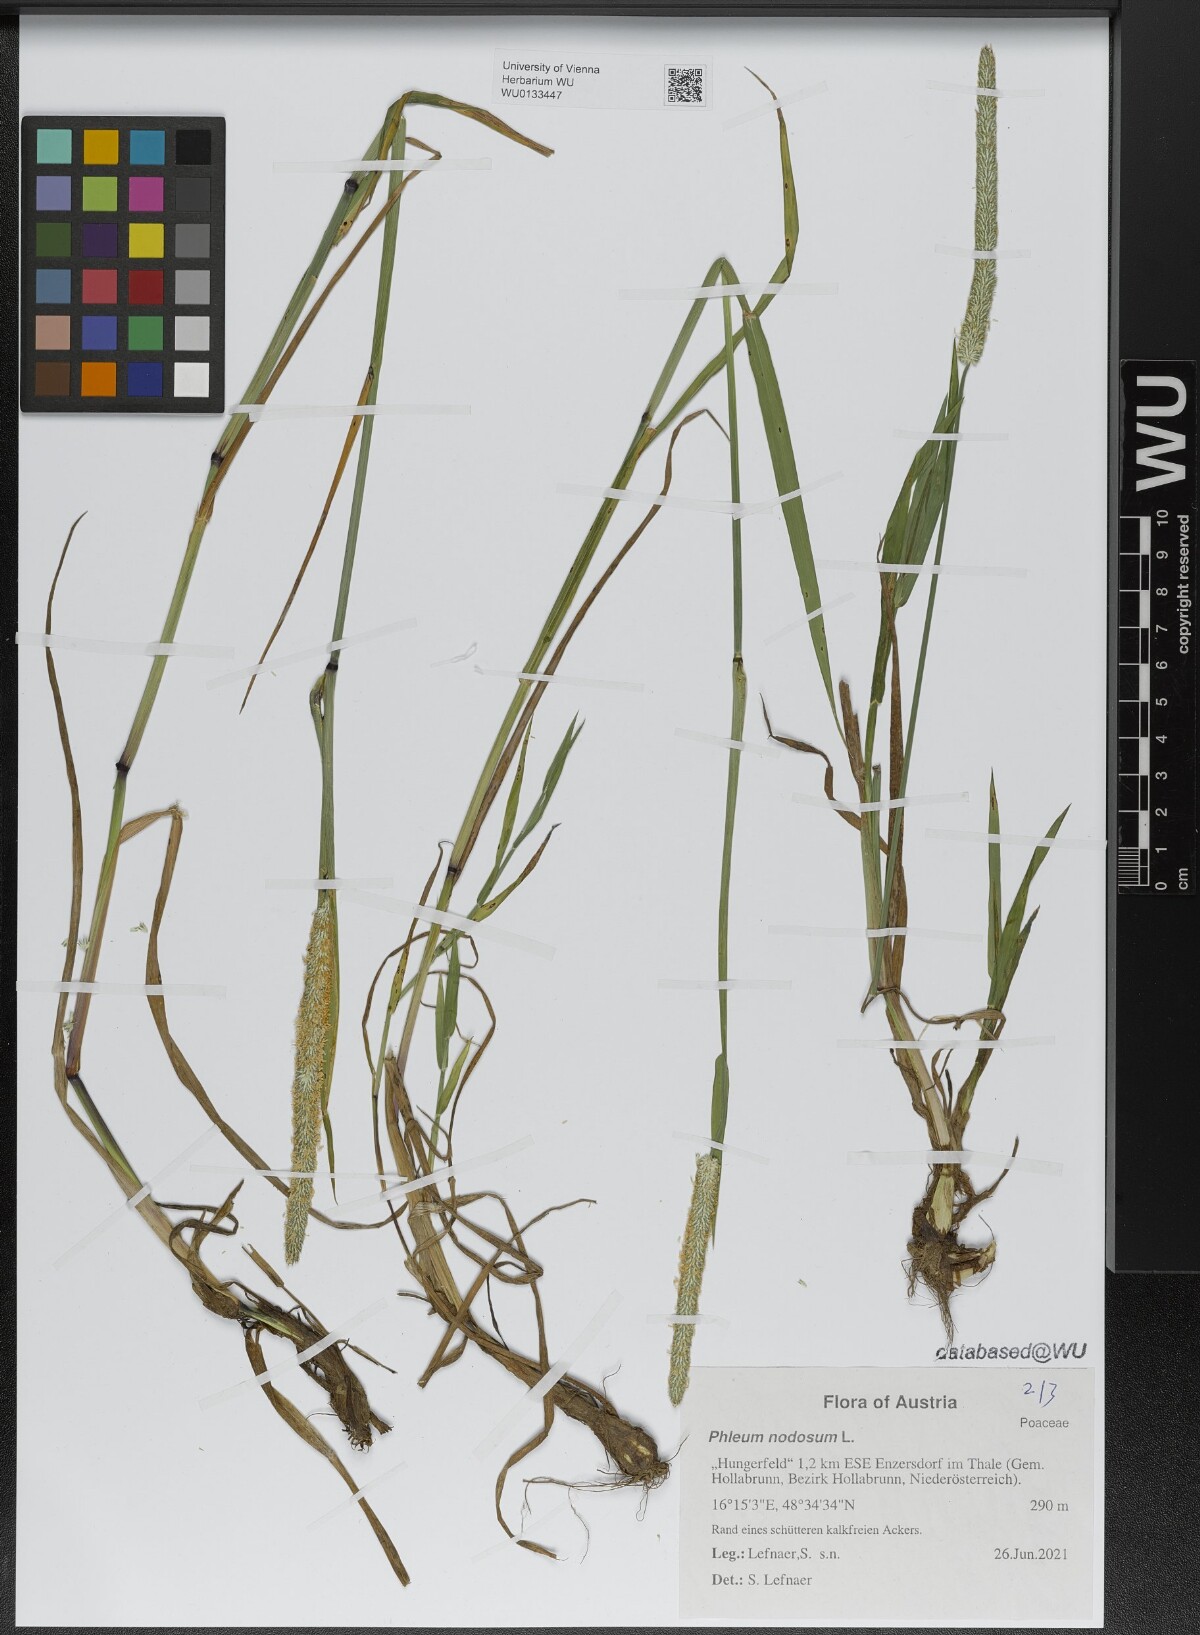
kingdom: Plantae
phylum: Tracheophyta
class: Liliopsida
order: Poales
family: Poaceae
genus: Phleum
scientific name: Phleum pratense
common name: Timothy grass
